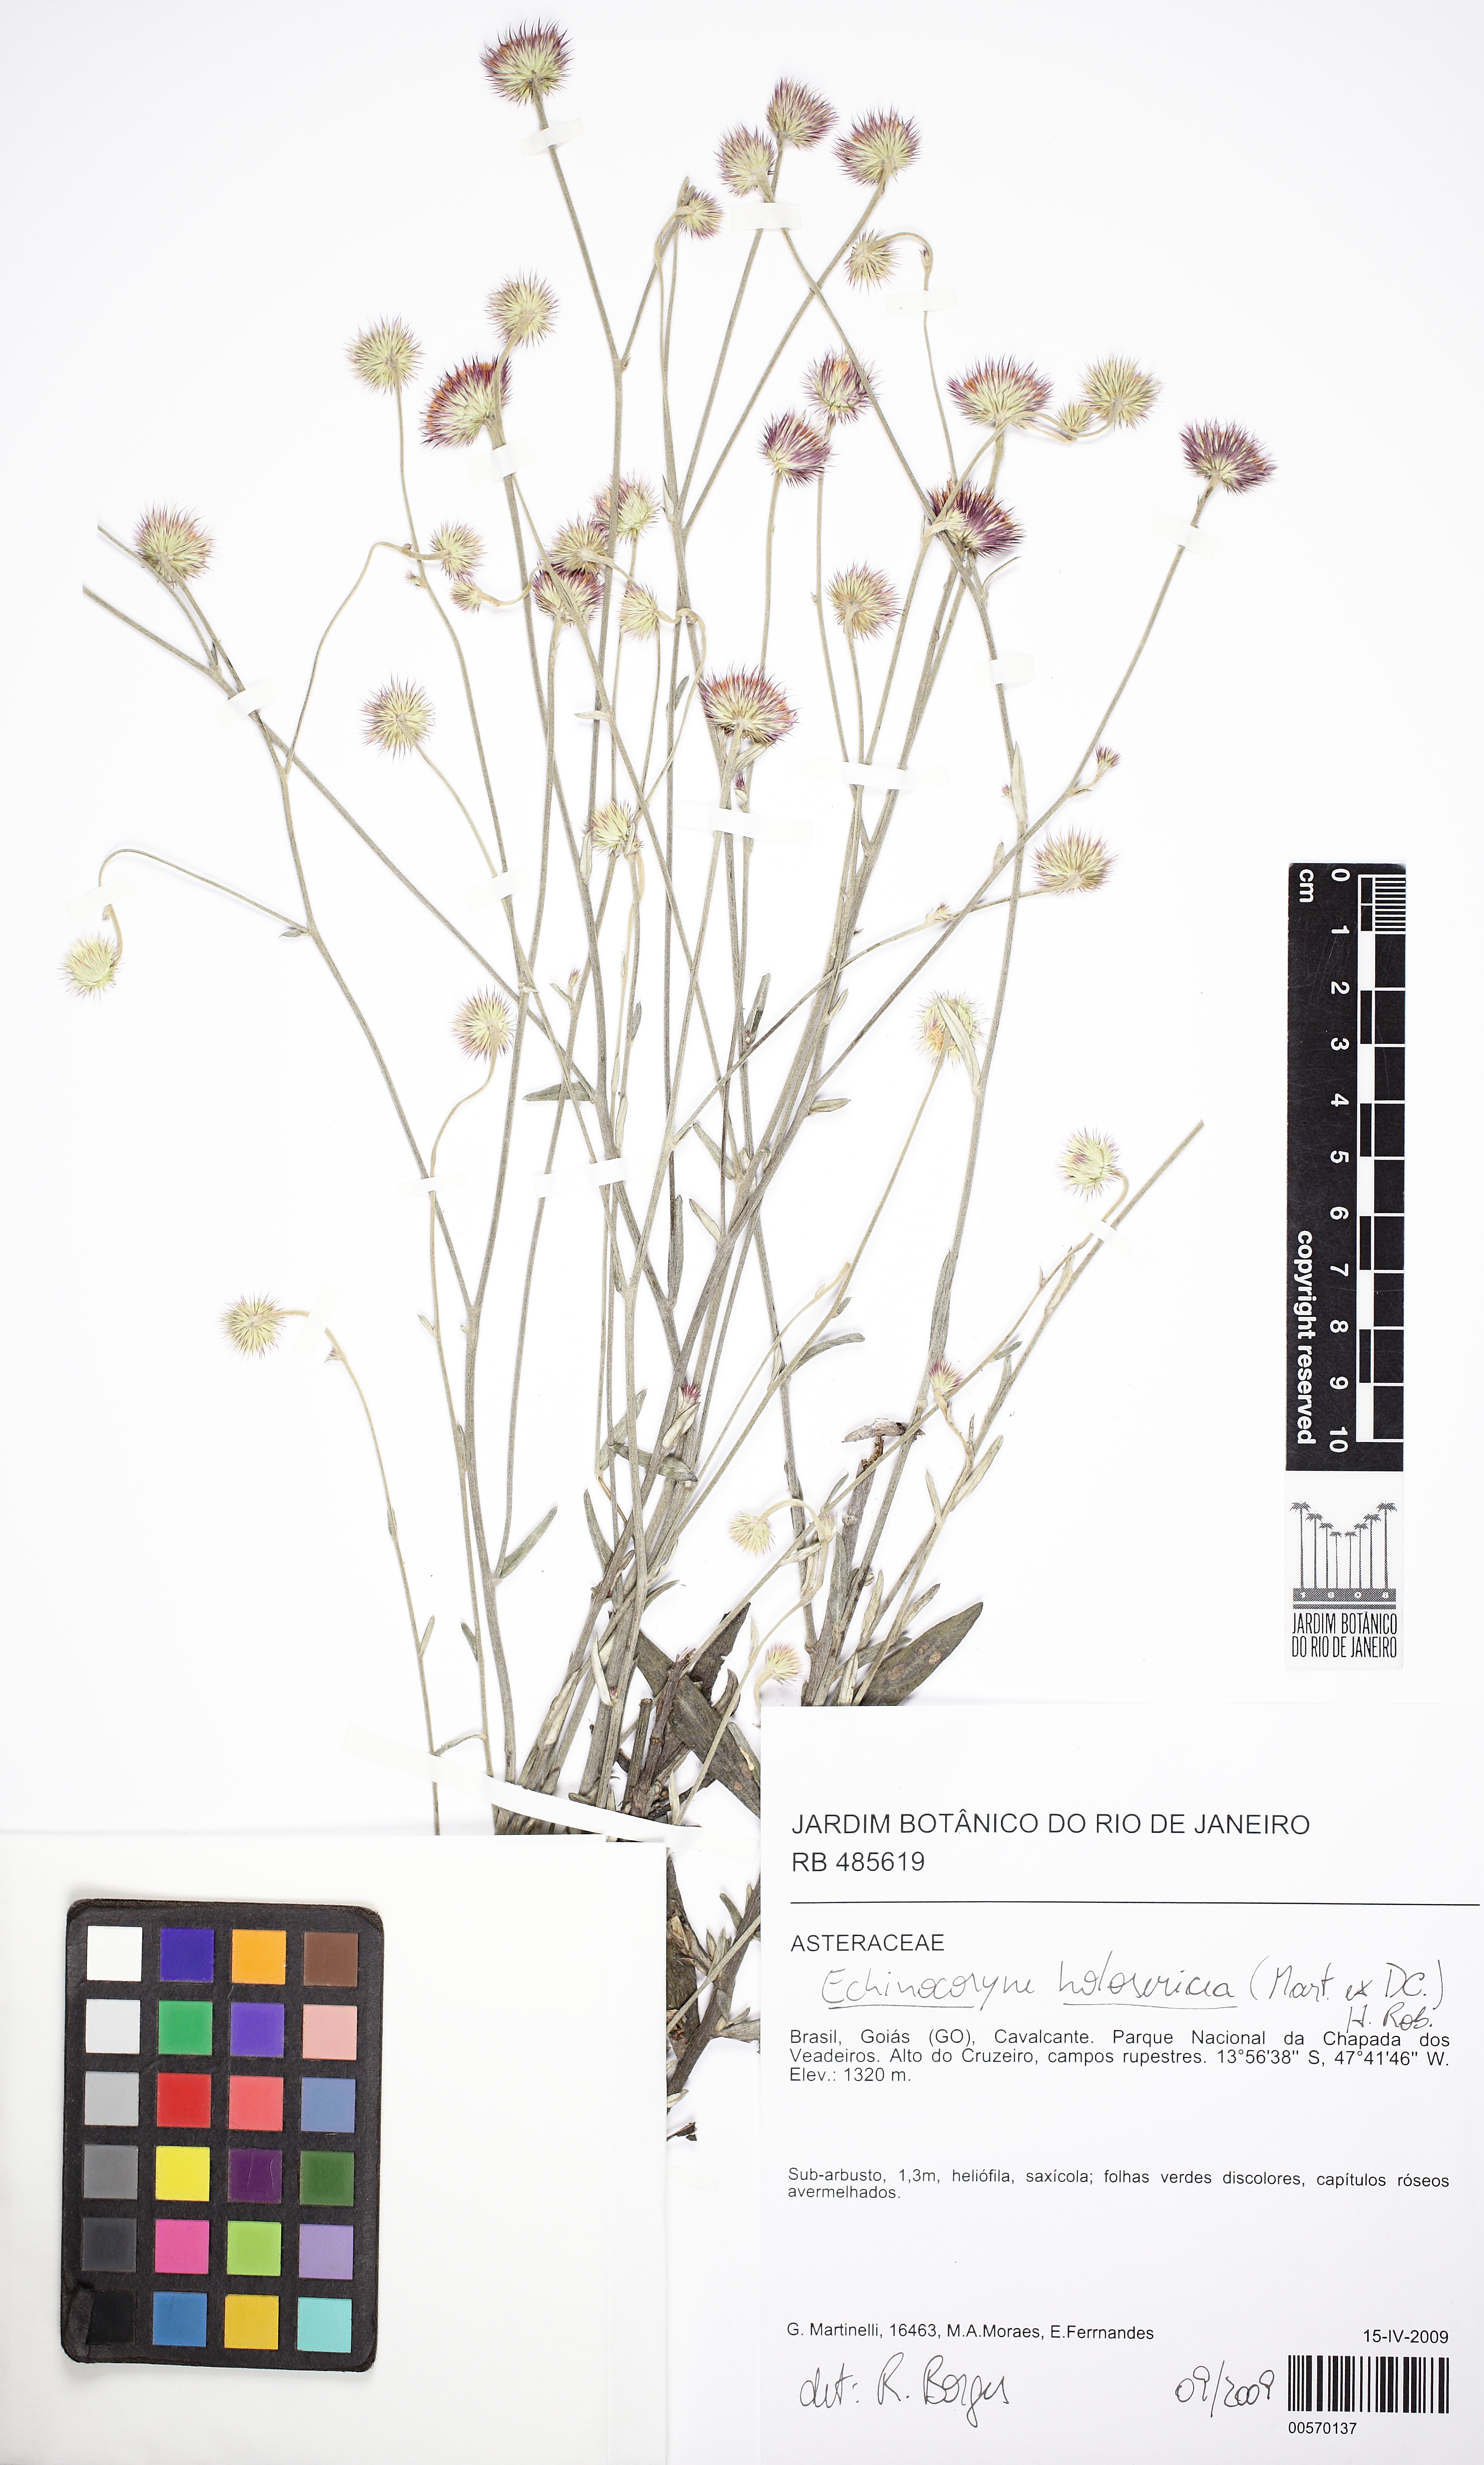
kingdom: Plantae
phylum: Tracheophyta
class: Magnoliopsida
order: Asterales
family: Asteraceae
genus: Echinocoryne
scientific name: Echinocoryne holosericea
